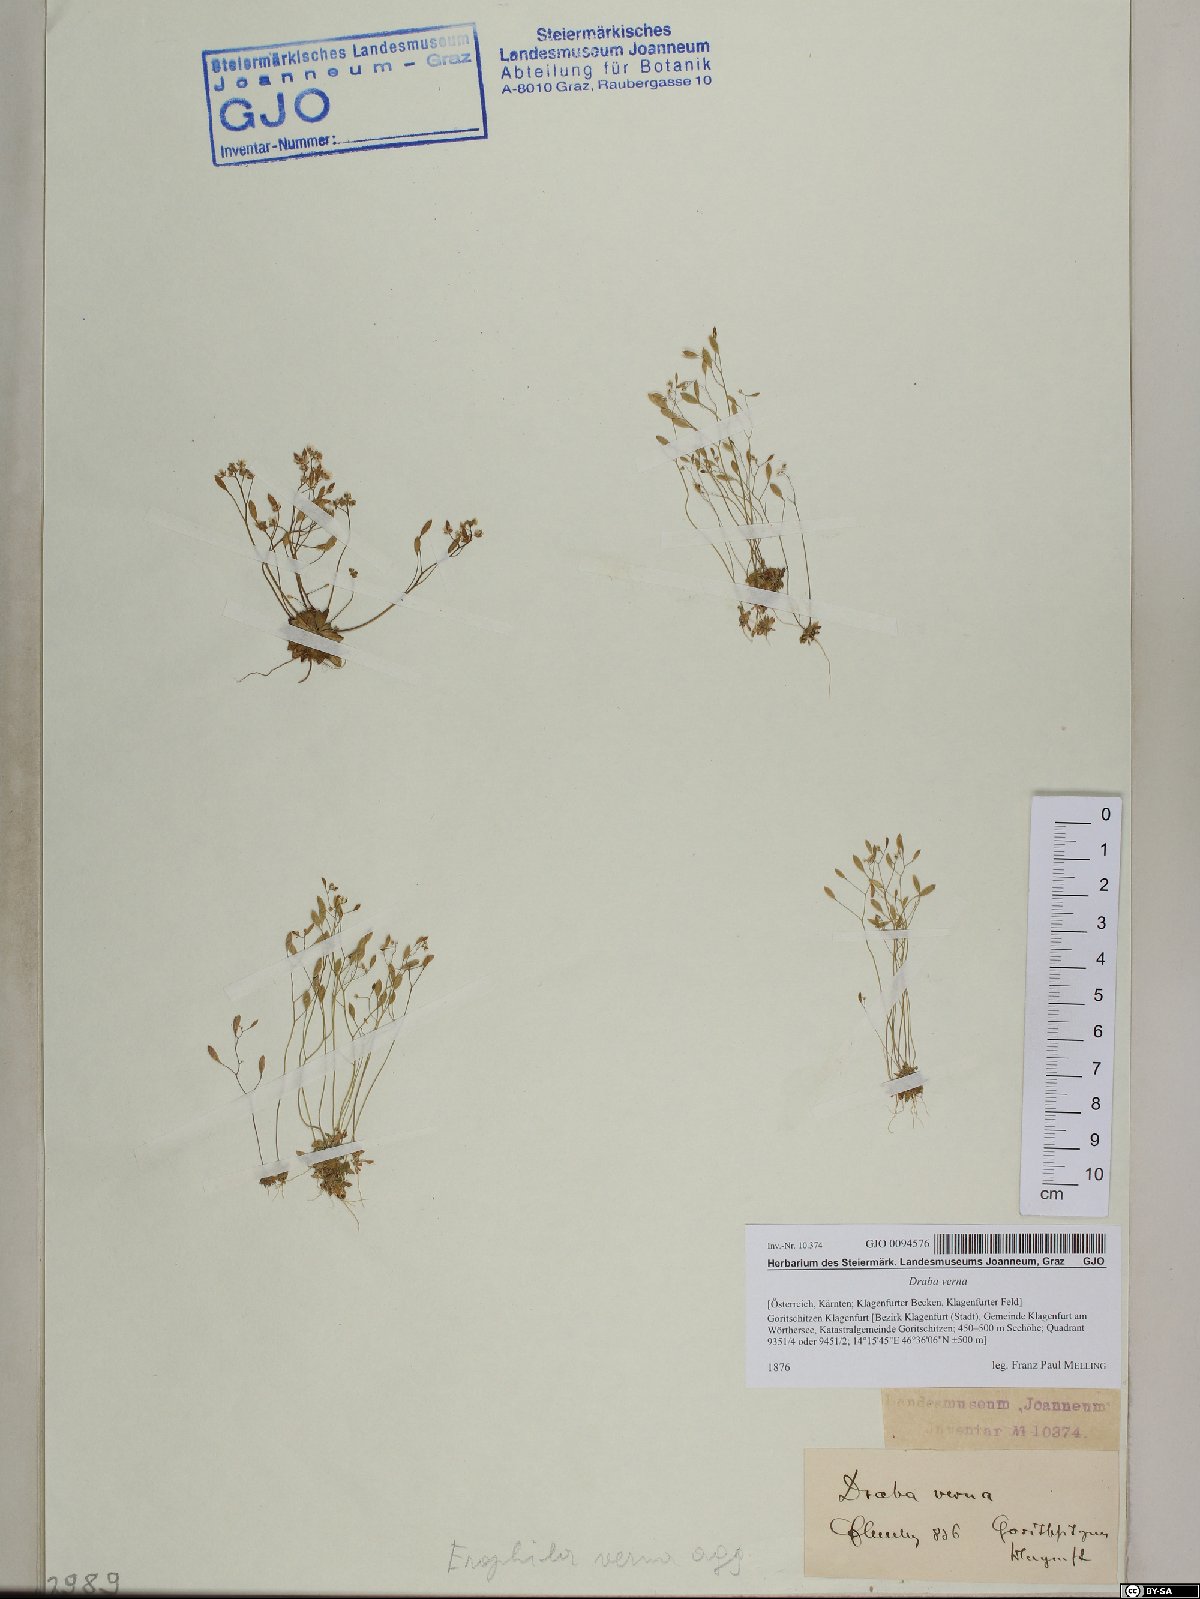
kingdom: Plantae
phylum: Tracheophyta
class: Magnoliopsida
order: Brassicales
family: Brassicaceae
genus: Draba
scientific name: Draba verna
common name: Spring draba
